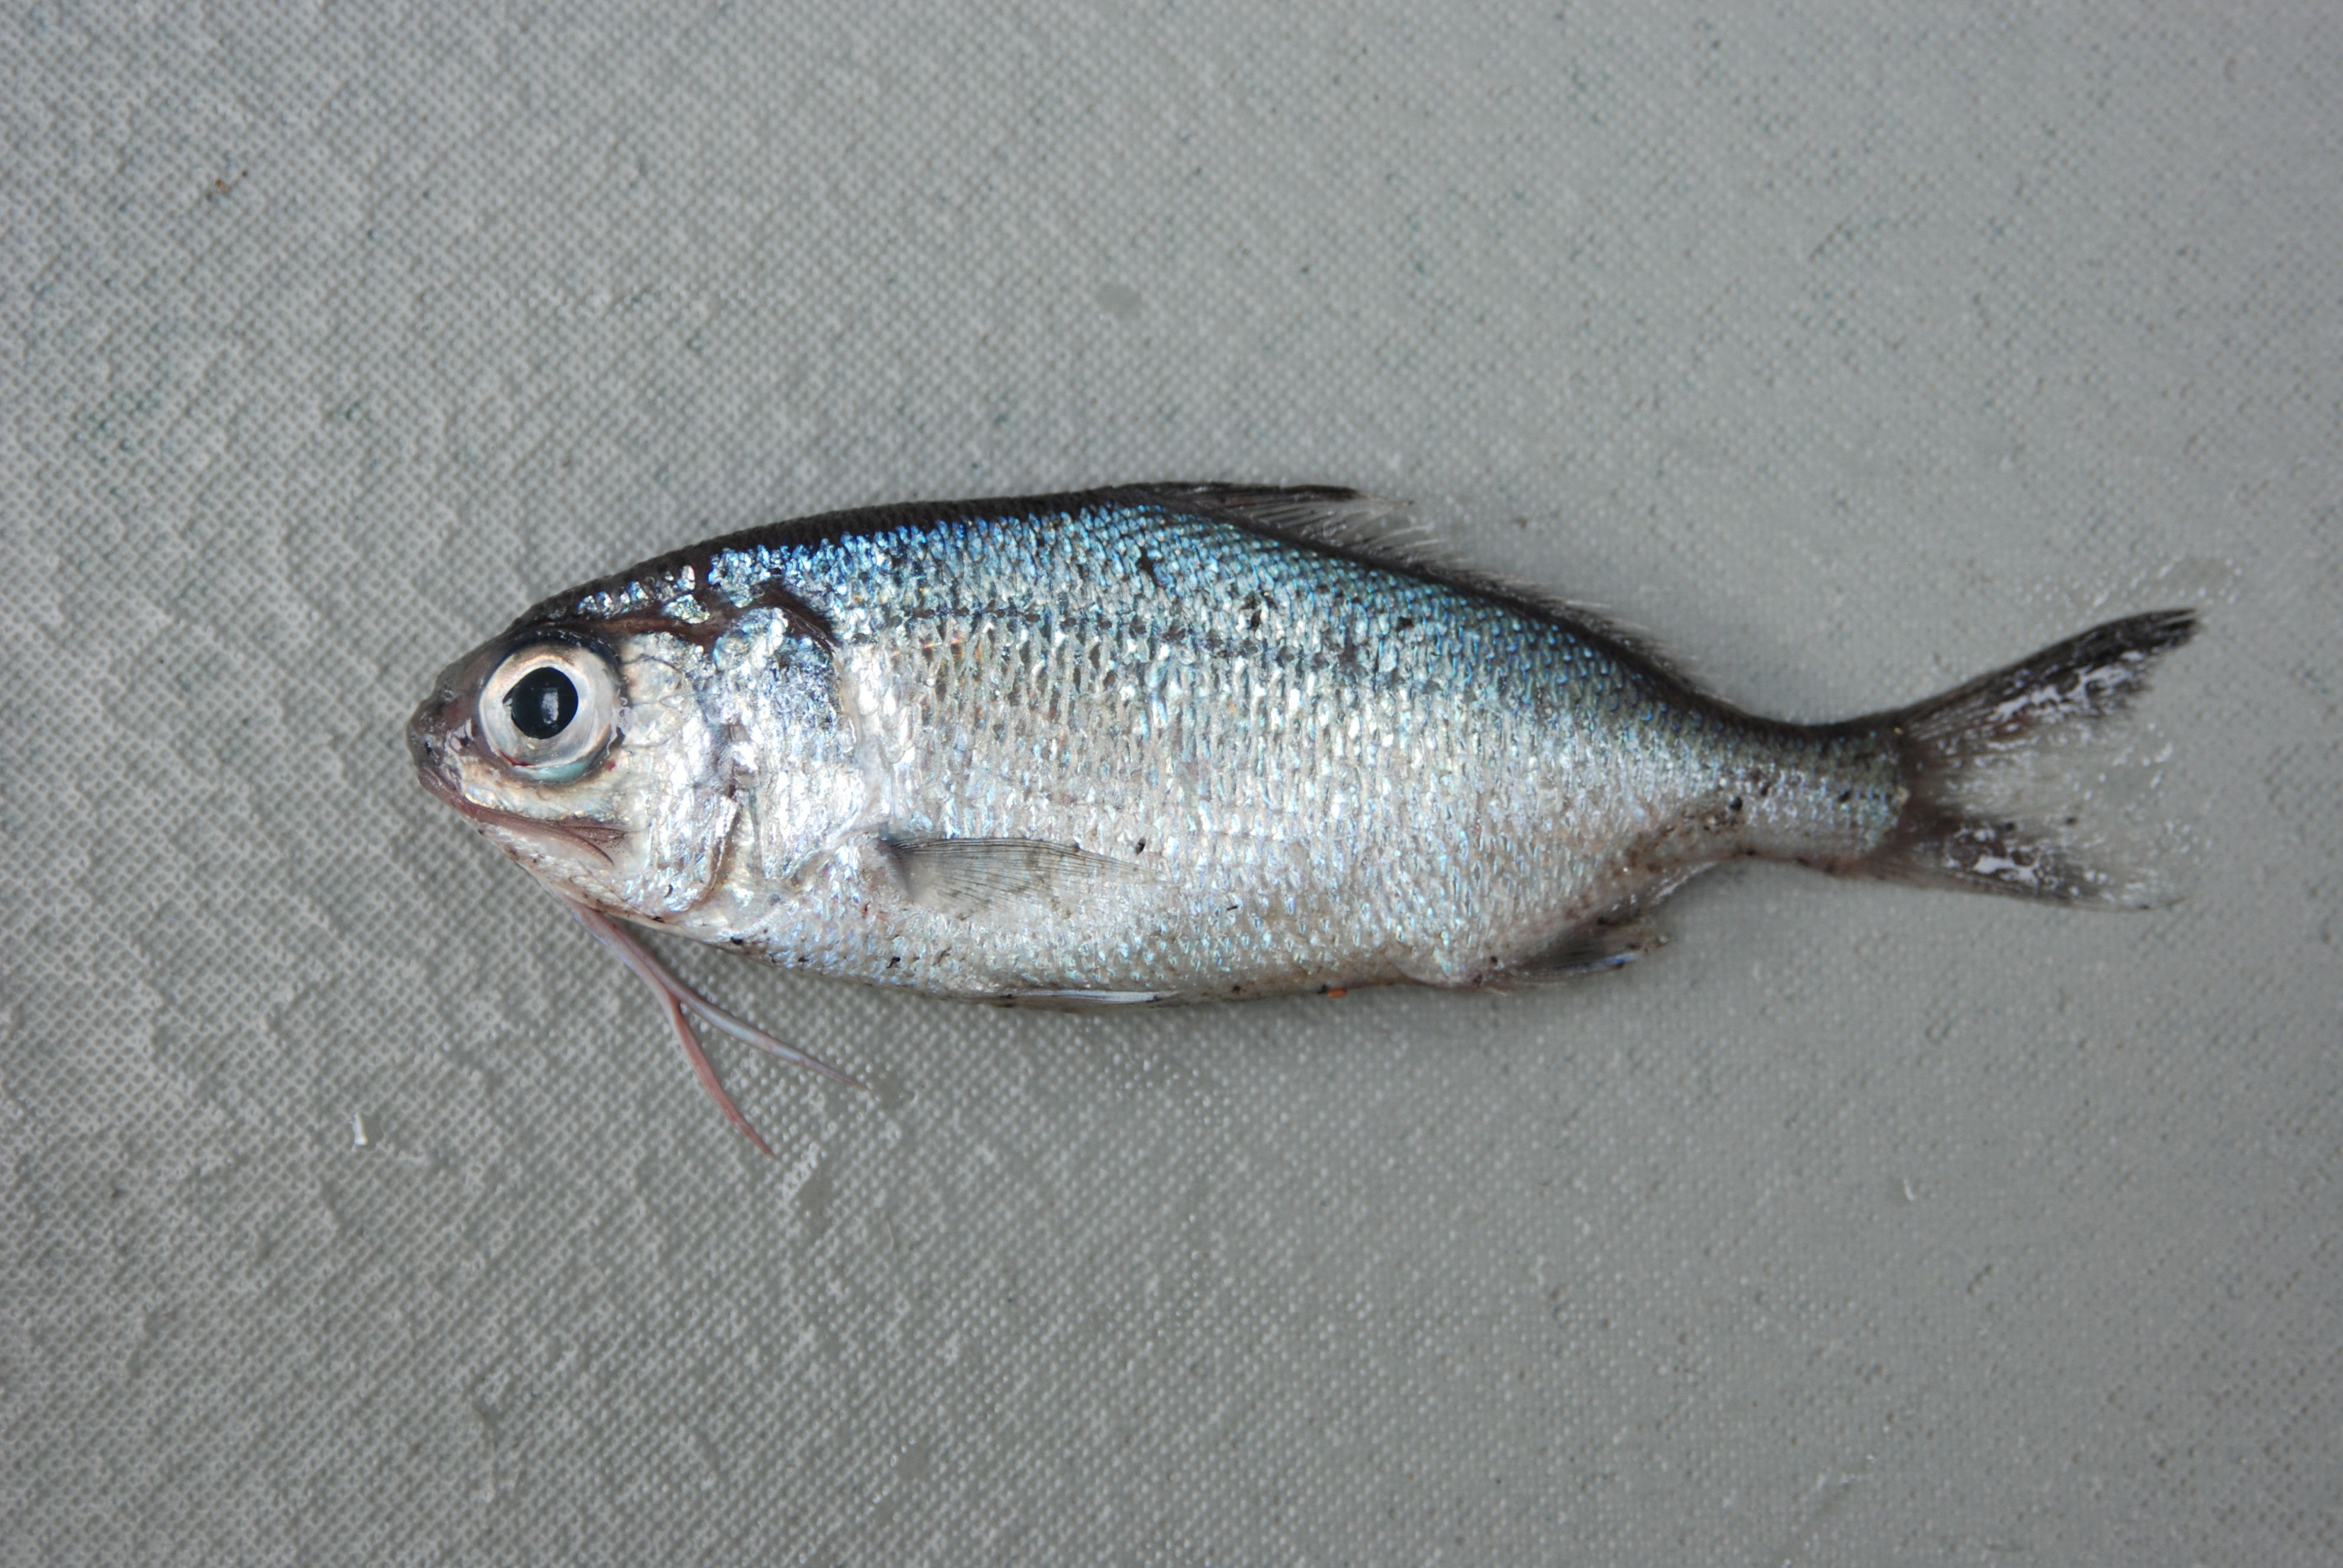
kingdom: Animalia
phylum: Chordata
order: Polymixiiformes
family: Polymixiidae
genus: Polymixia
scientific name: Polymixia berndti
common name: Berndt’s beardfish
